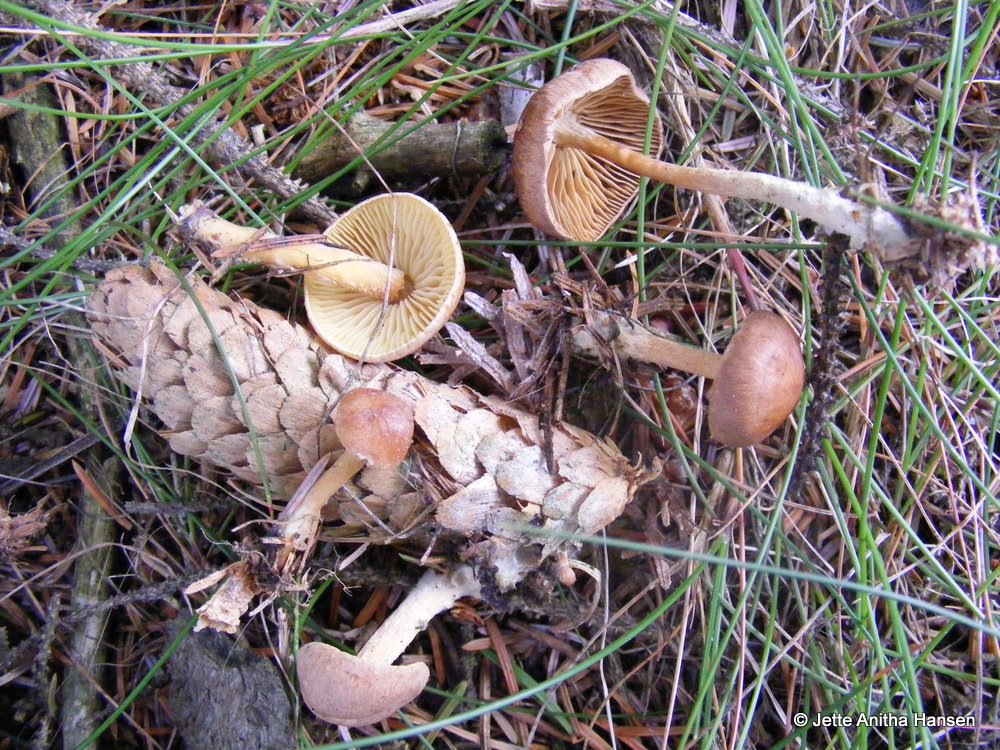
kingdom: Fungi
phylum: Basidiomycota
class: Agaricomycetes
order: Agaricales
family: Omphalotaceae
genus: Collybiopsis
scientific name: Collybiopsis peronata
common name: bestøvlet fladhat
